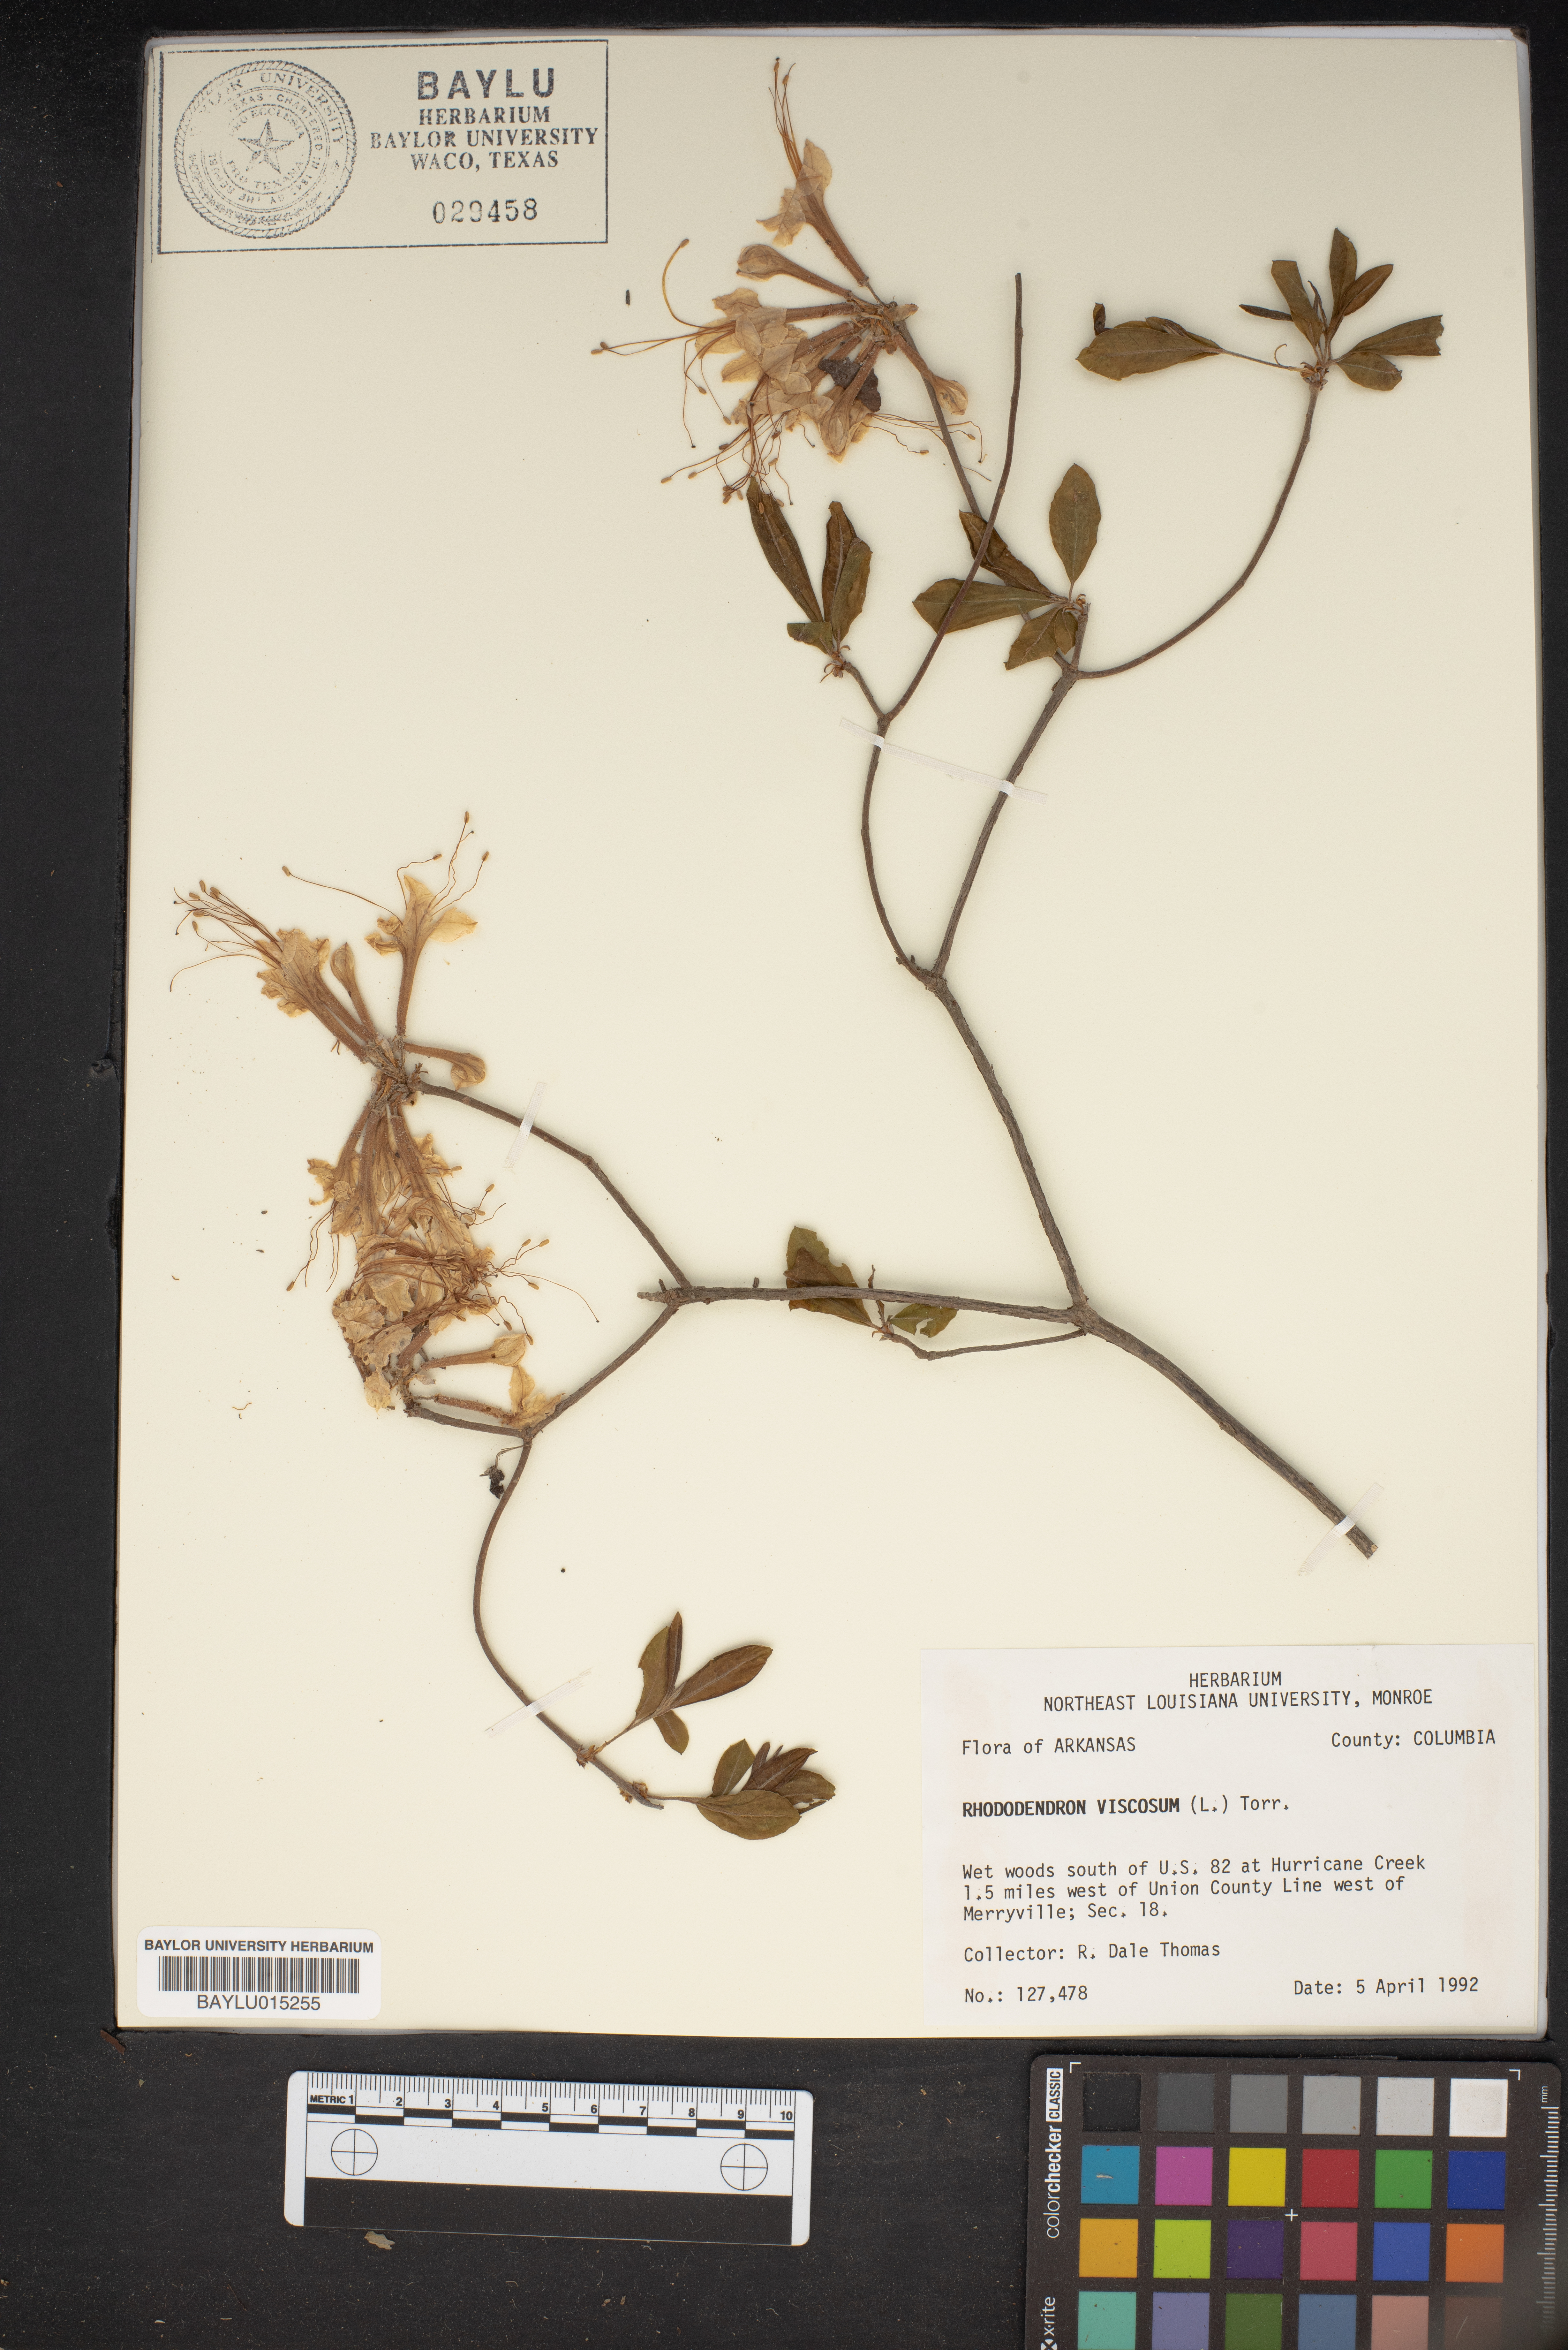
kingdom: Plantae
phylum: Tracheophyta
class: Magnoliopsida
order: Ericales
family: Ericaceae
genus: Rhododendron
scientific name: Rhododendron viscosum
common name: Clammy azalea
